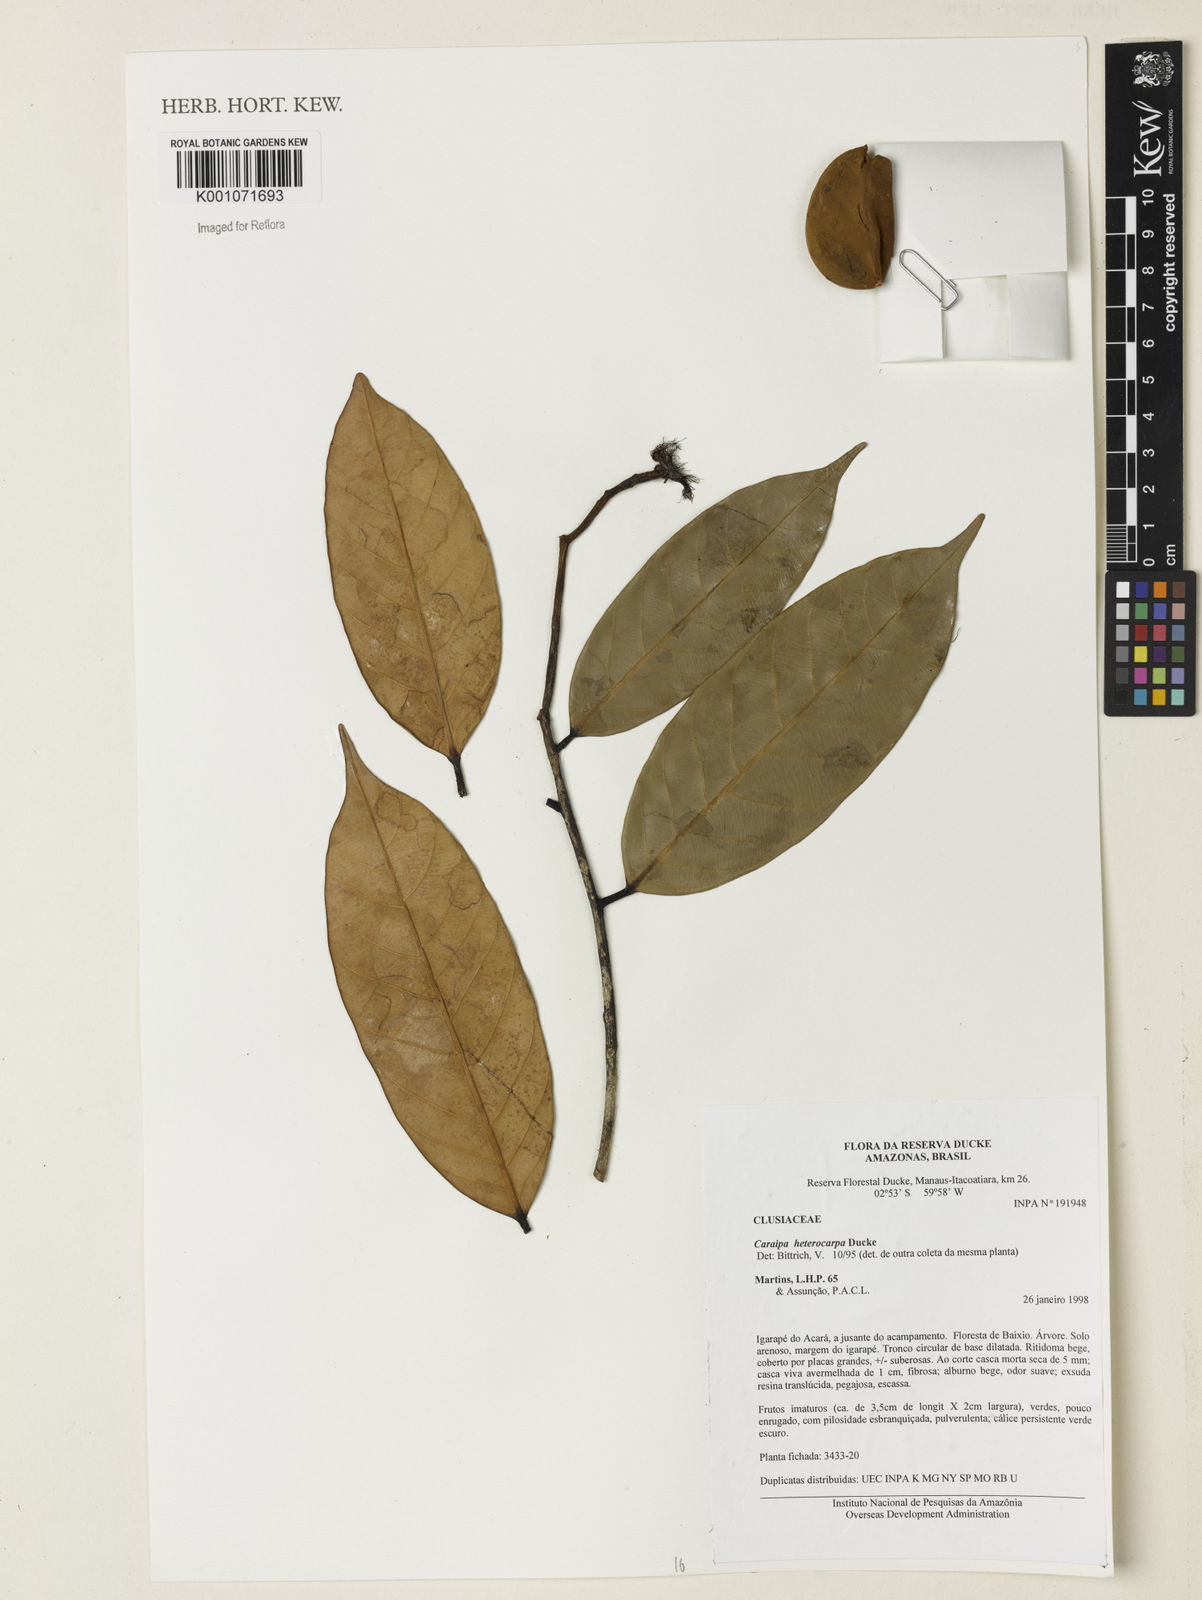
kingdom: Plantae
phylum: Tracheophyta
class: Magnoliopsida
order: Malpighiales
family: Calophyllaceae
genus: Caraipa
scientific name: Caraipa heterocarpa
